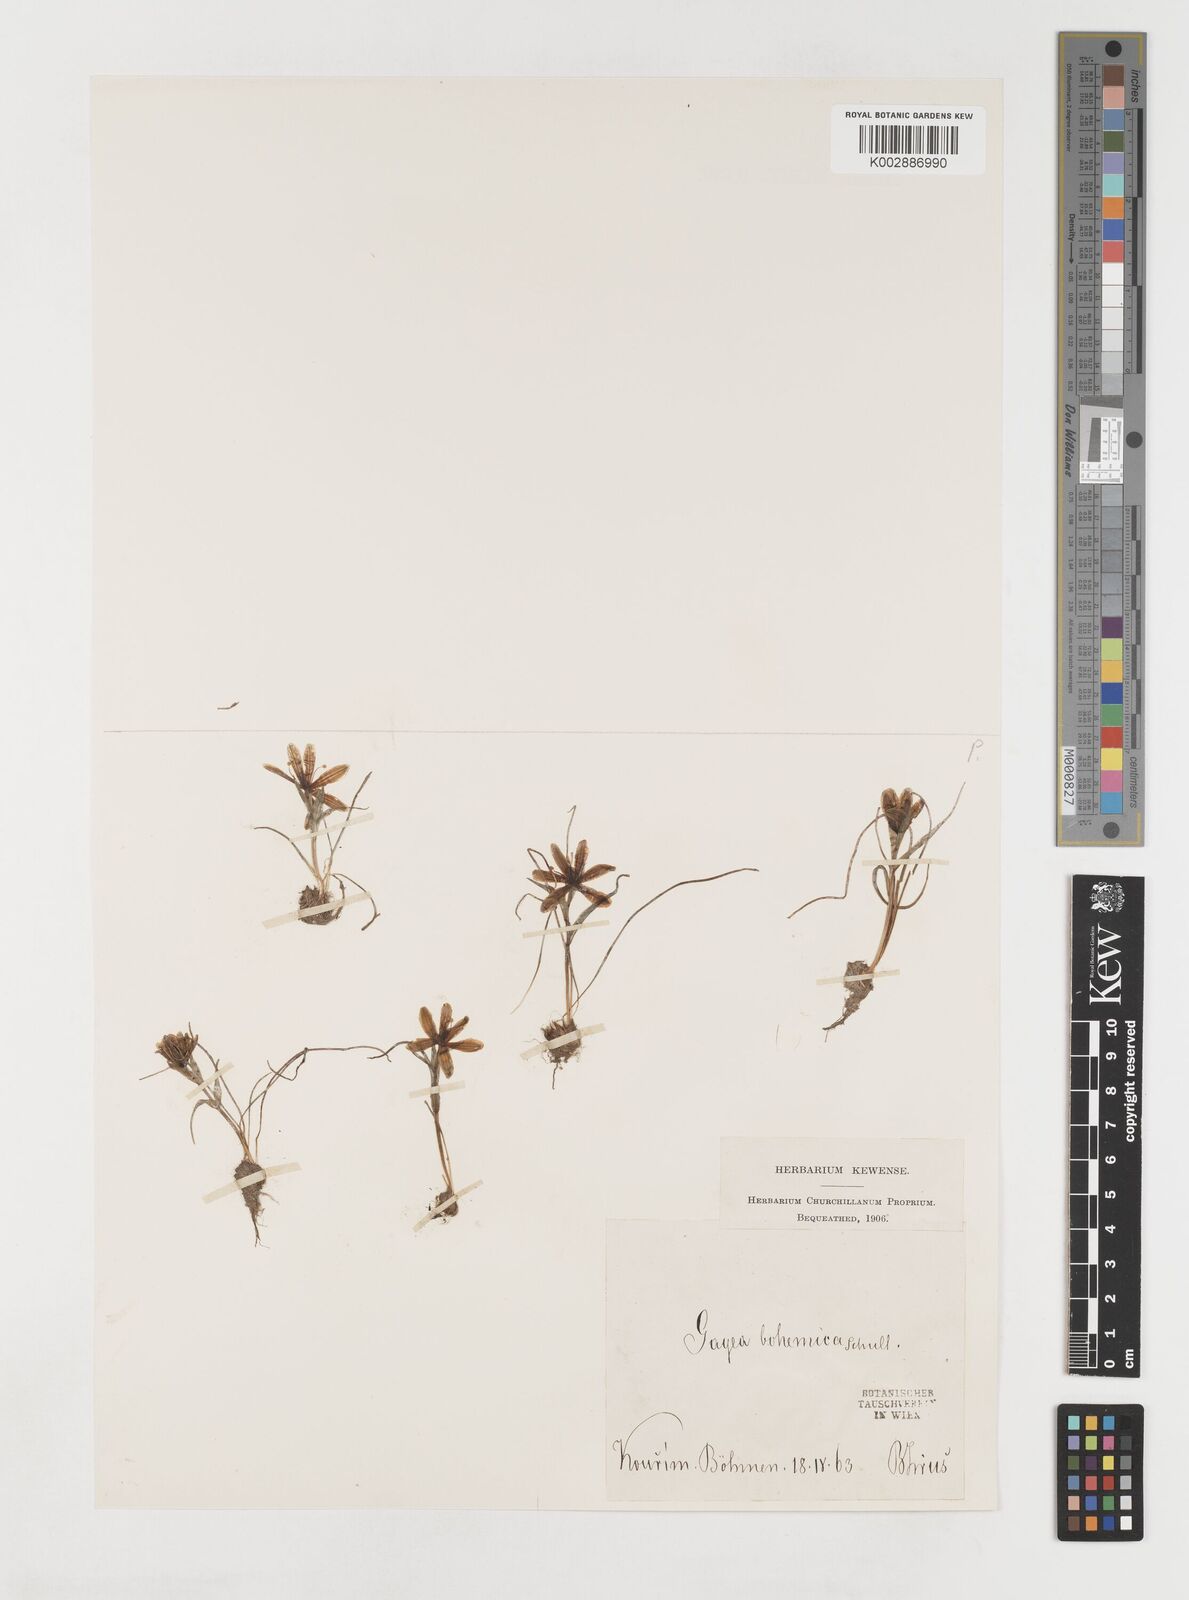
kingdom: Plantae
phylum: Tracheophyta
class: Liliopsida
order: Liliales
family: Liliaceae
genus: Gagea
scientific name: Gagea bohemica
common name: Early star-of-bethlehem
